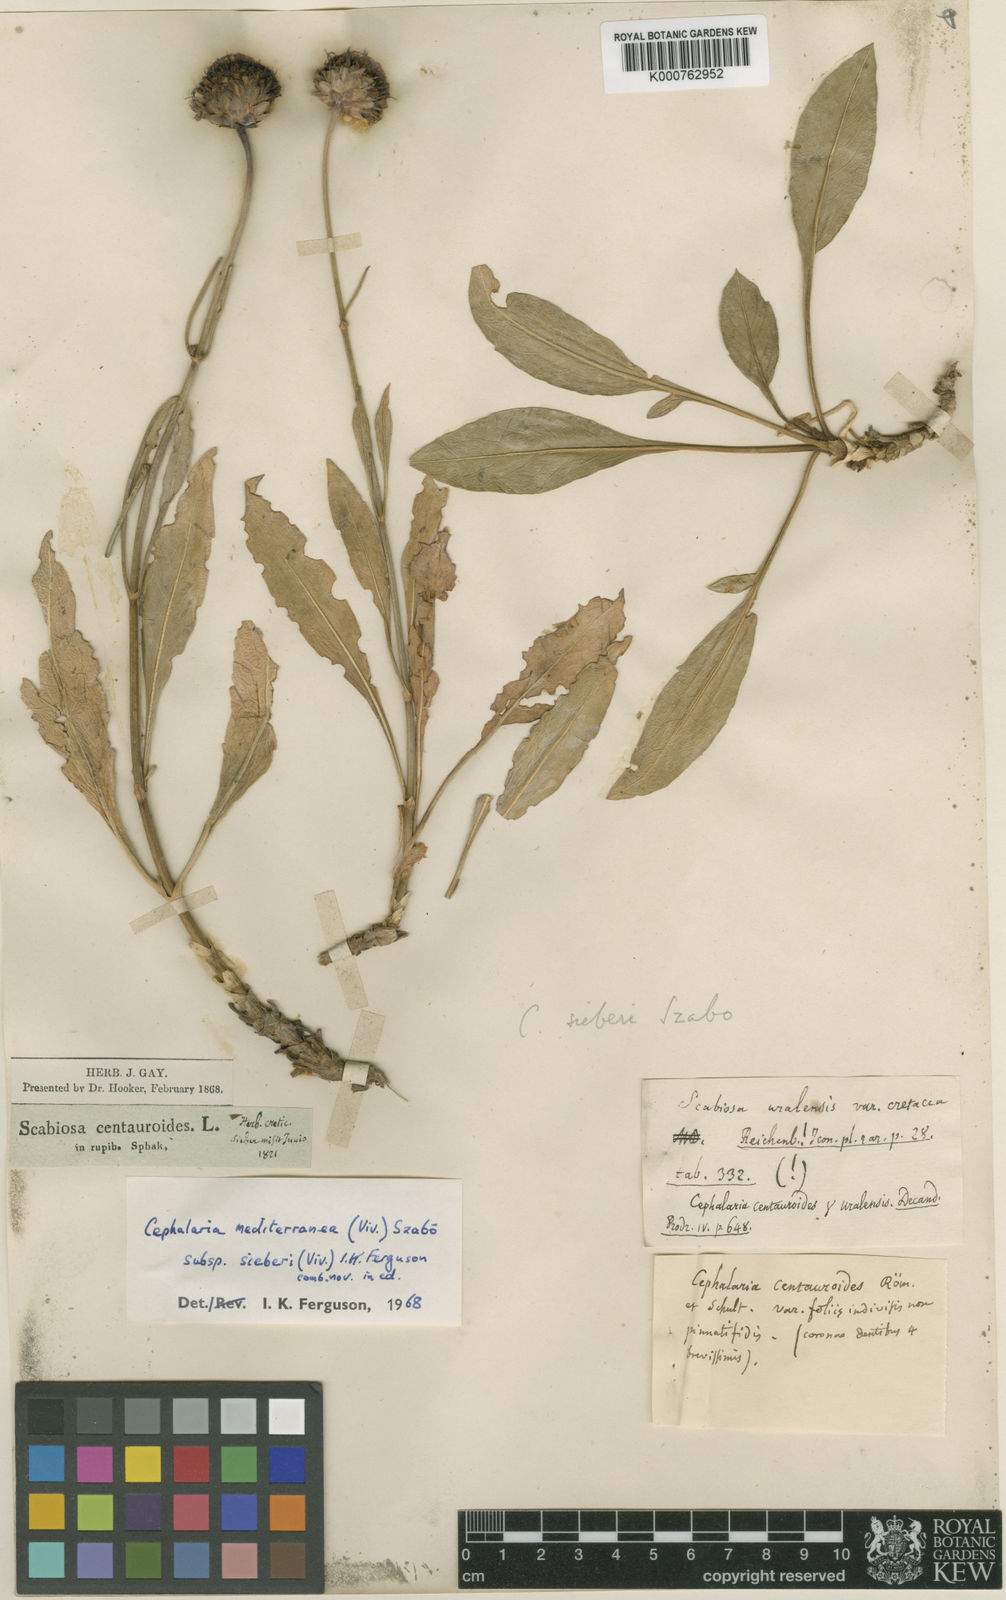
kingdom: Plantae
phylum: Tracheophyta
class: Magnoliopsida
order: Dipsacales
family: Caprifoliaceae
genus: Cephalaria
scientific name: Cephalaria squamiflora
